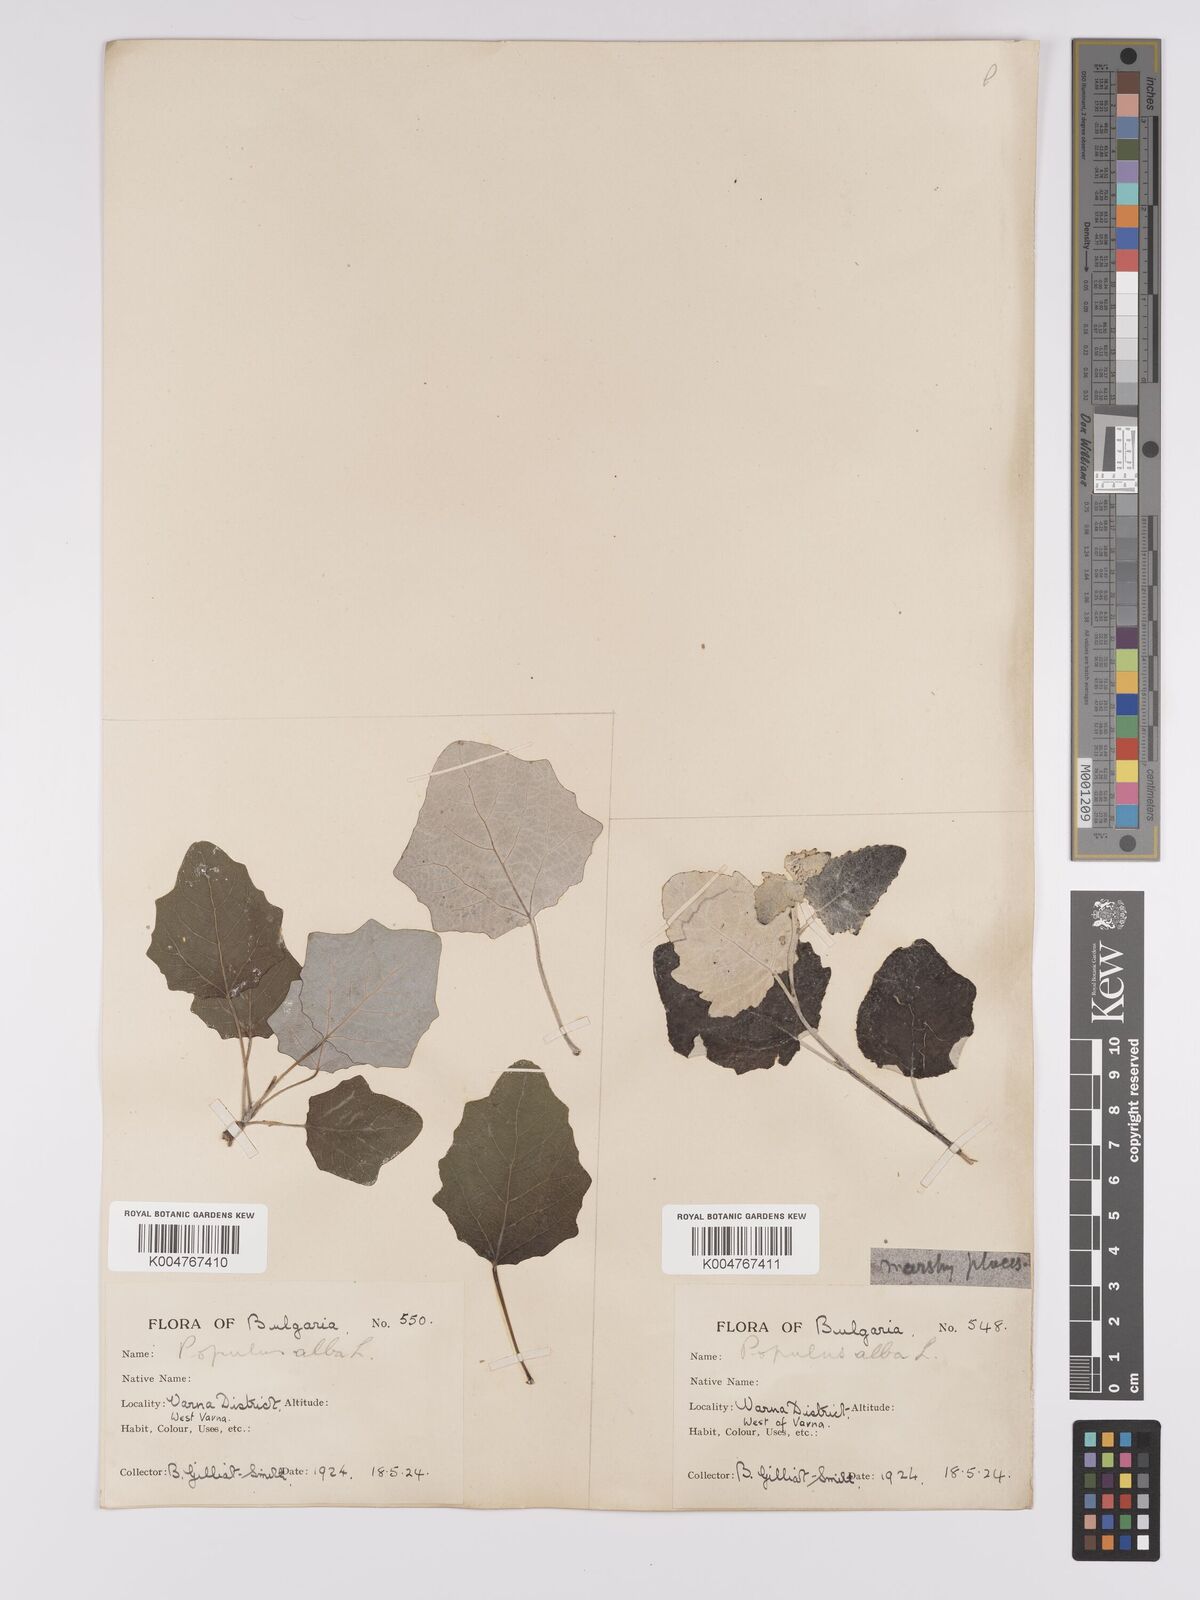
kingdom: Plantae
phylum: Tracheophyta
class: Magnoliopsida
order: Malpighiales
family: Salicaceae
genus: Populus
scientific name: Populus alba
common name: White poplar
